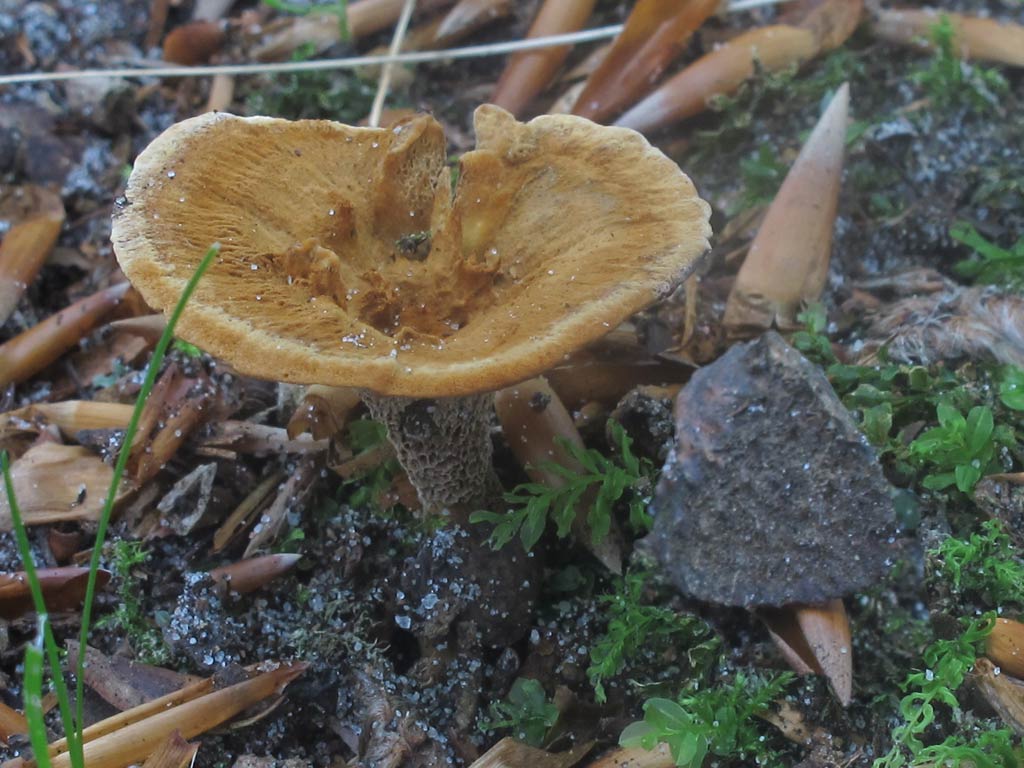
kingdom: Fungi
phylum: Basidiomycota
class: Agaricomycetes
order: Hymenochaetales
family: Hymenochaetaceae
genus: Coltricia
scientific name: Coltricia confluens
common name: park-sandporesvamp
